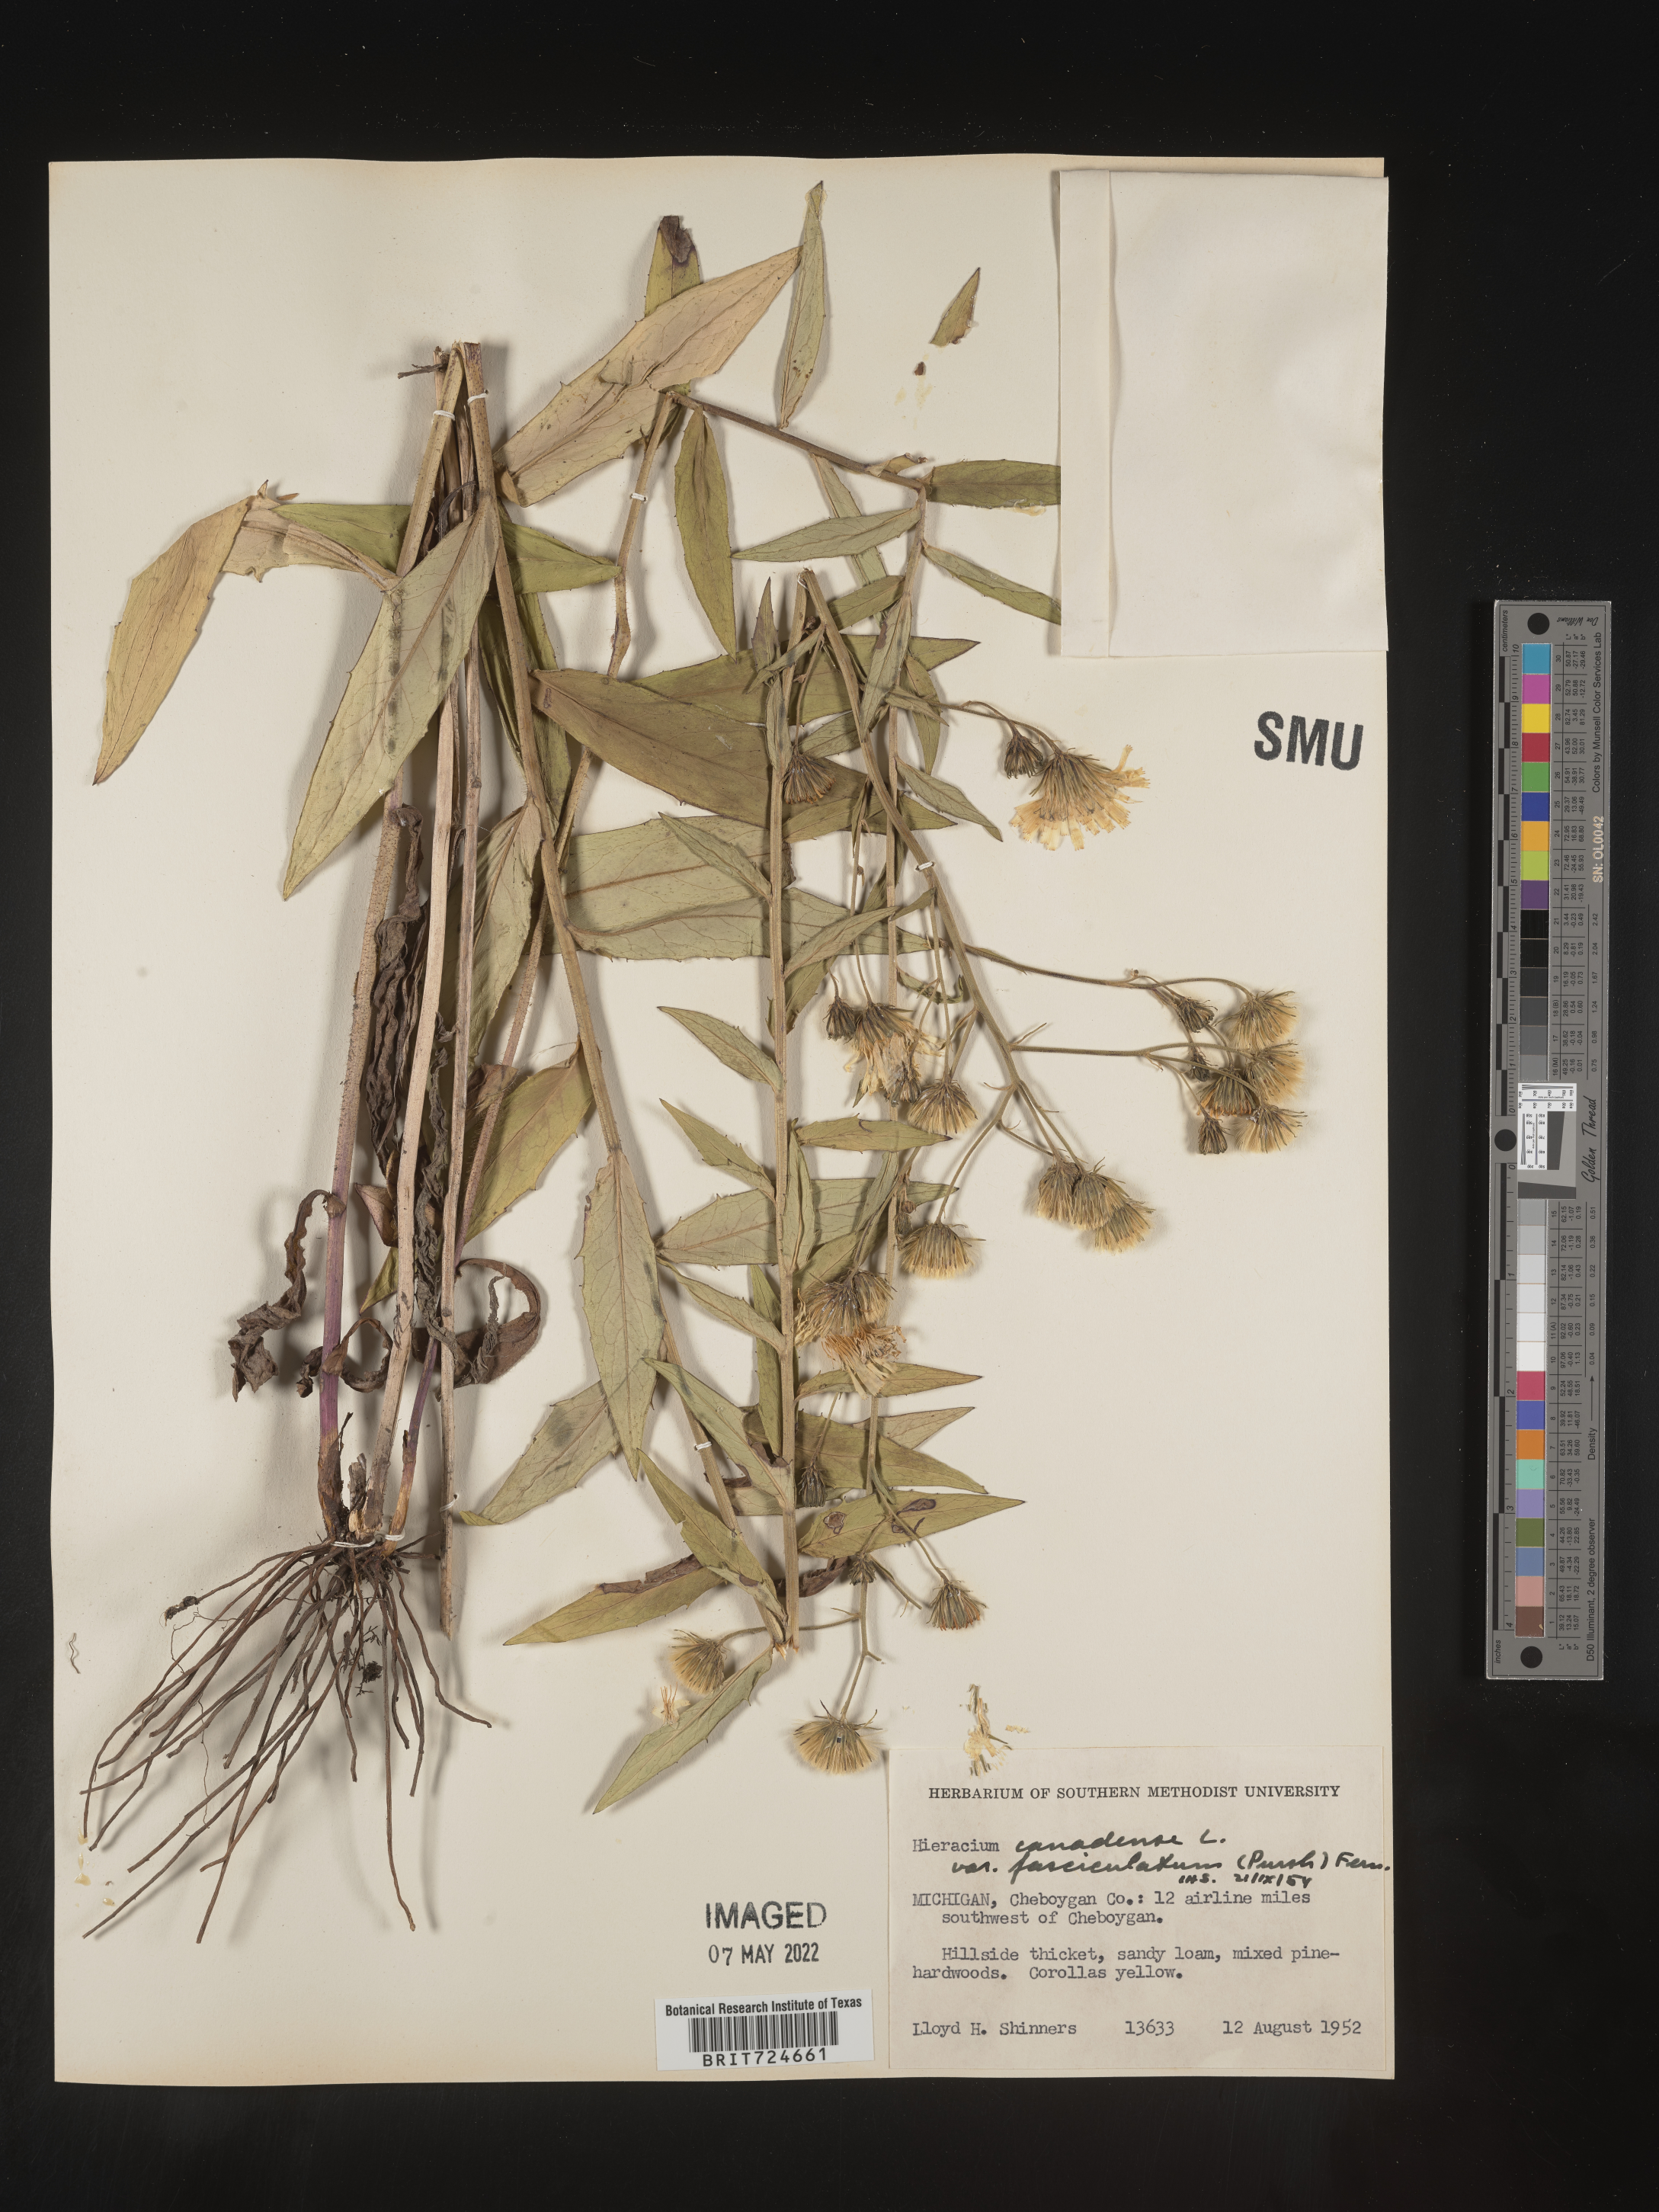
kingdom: Plantae
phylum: Tracheophyta
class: Magnoliopsida
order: Asterales
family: Asteraceae
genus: Hieracium
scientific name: Hieracium
